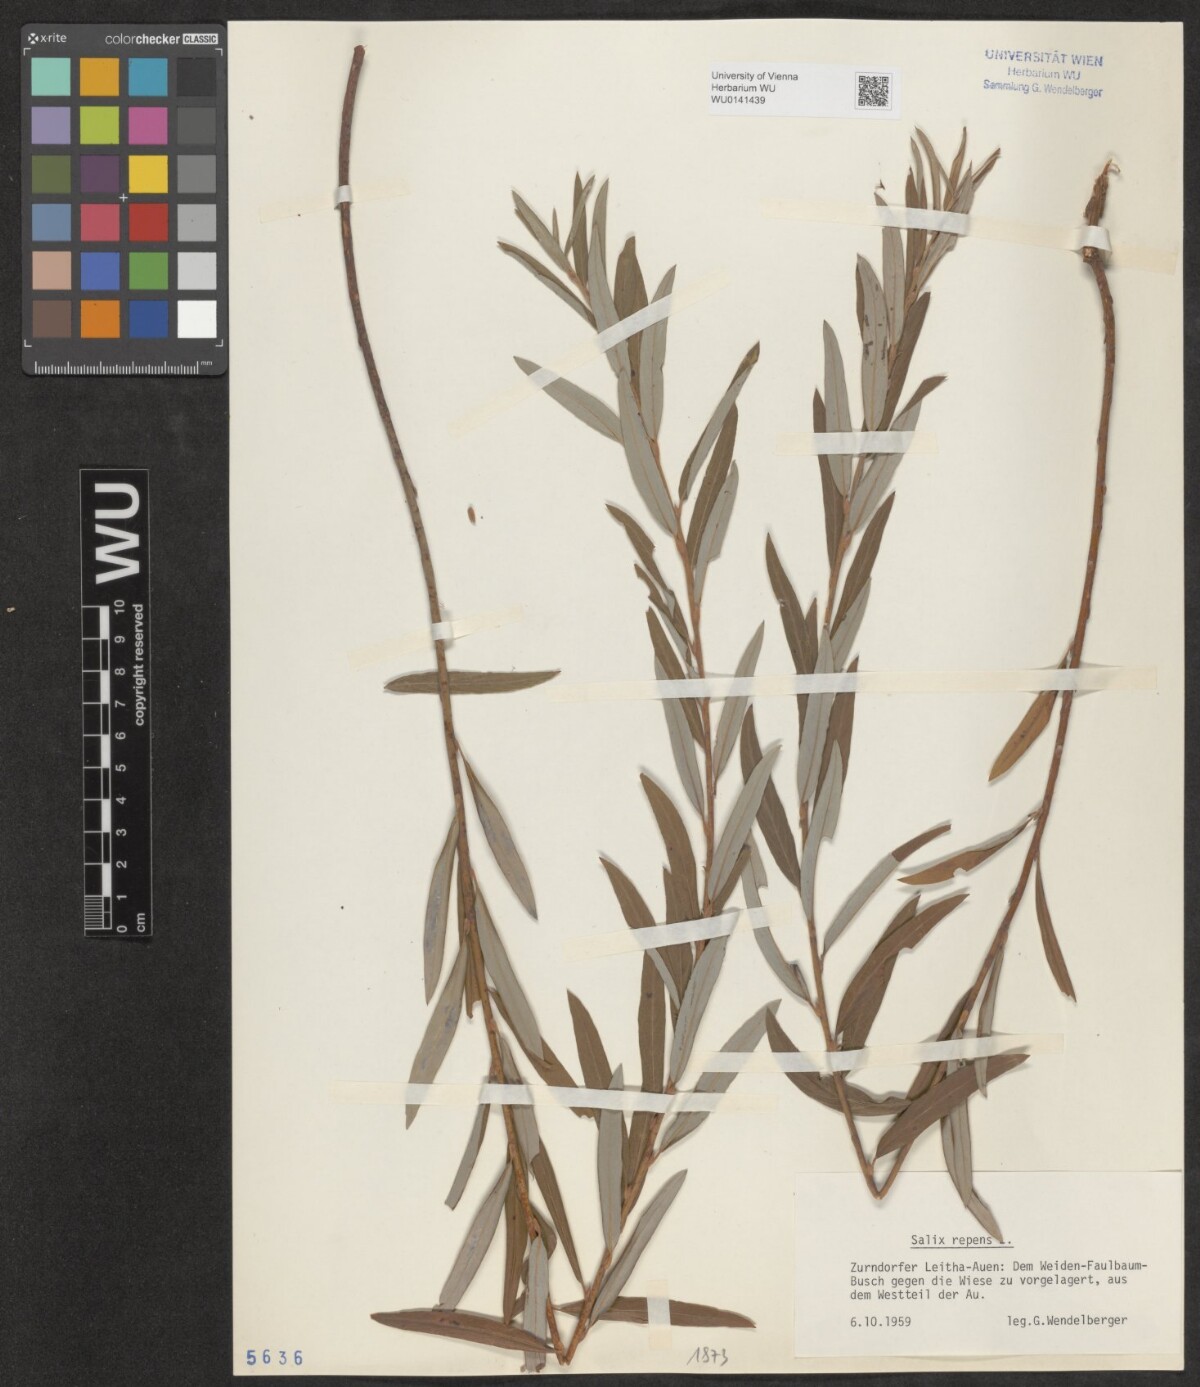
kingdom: Plantae
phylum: Tracheophyta
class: Magnoliopsida
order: Malpighiales
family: Salicaceae
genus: Salix
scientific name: Salix repens
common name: Creeping willow
